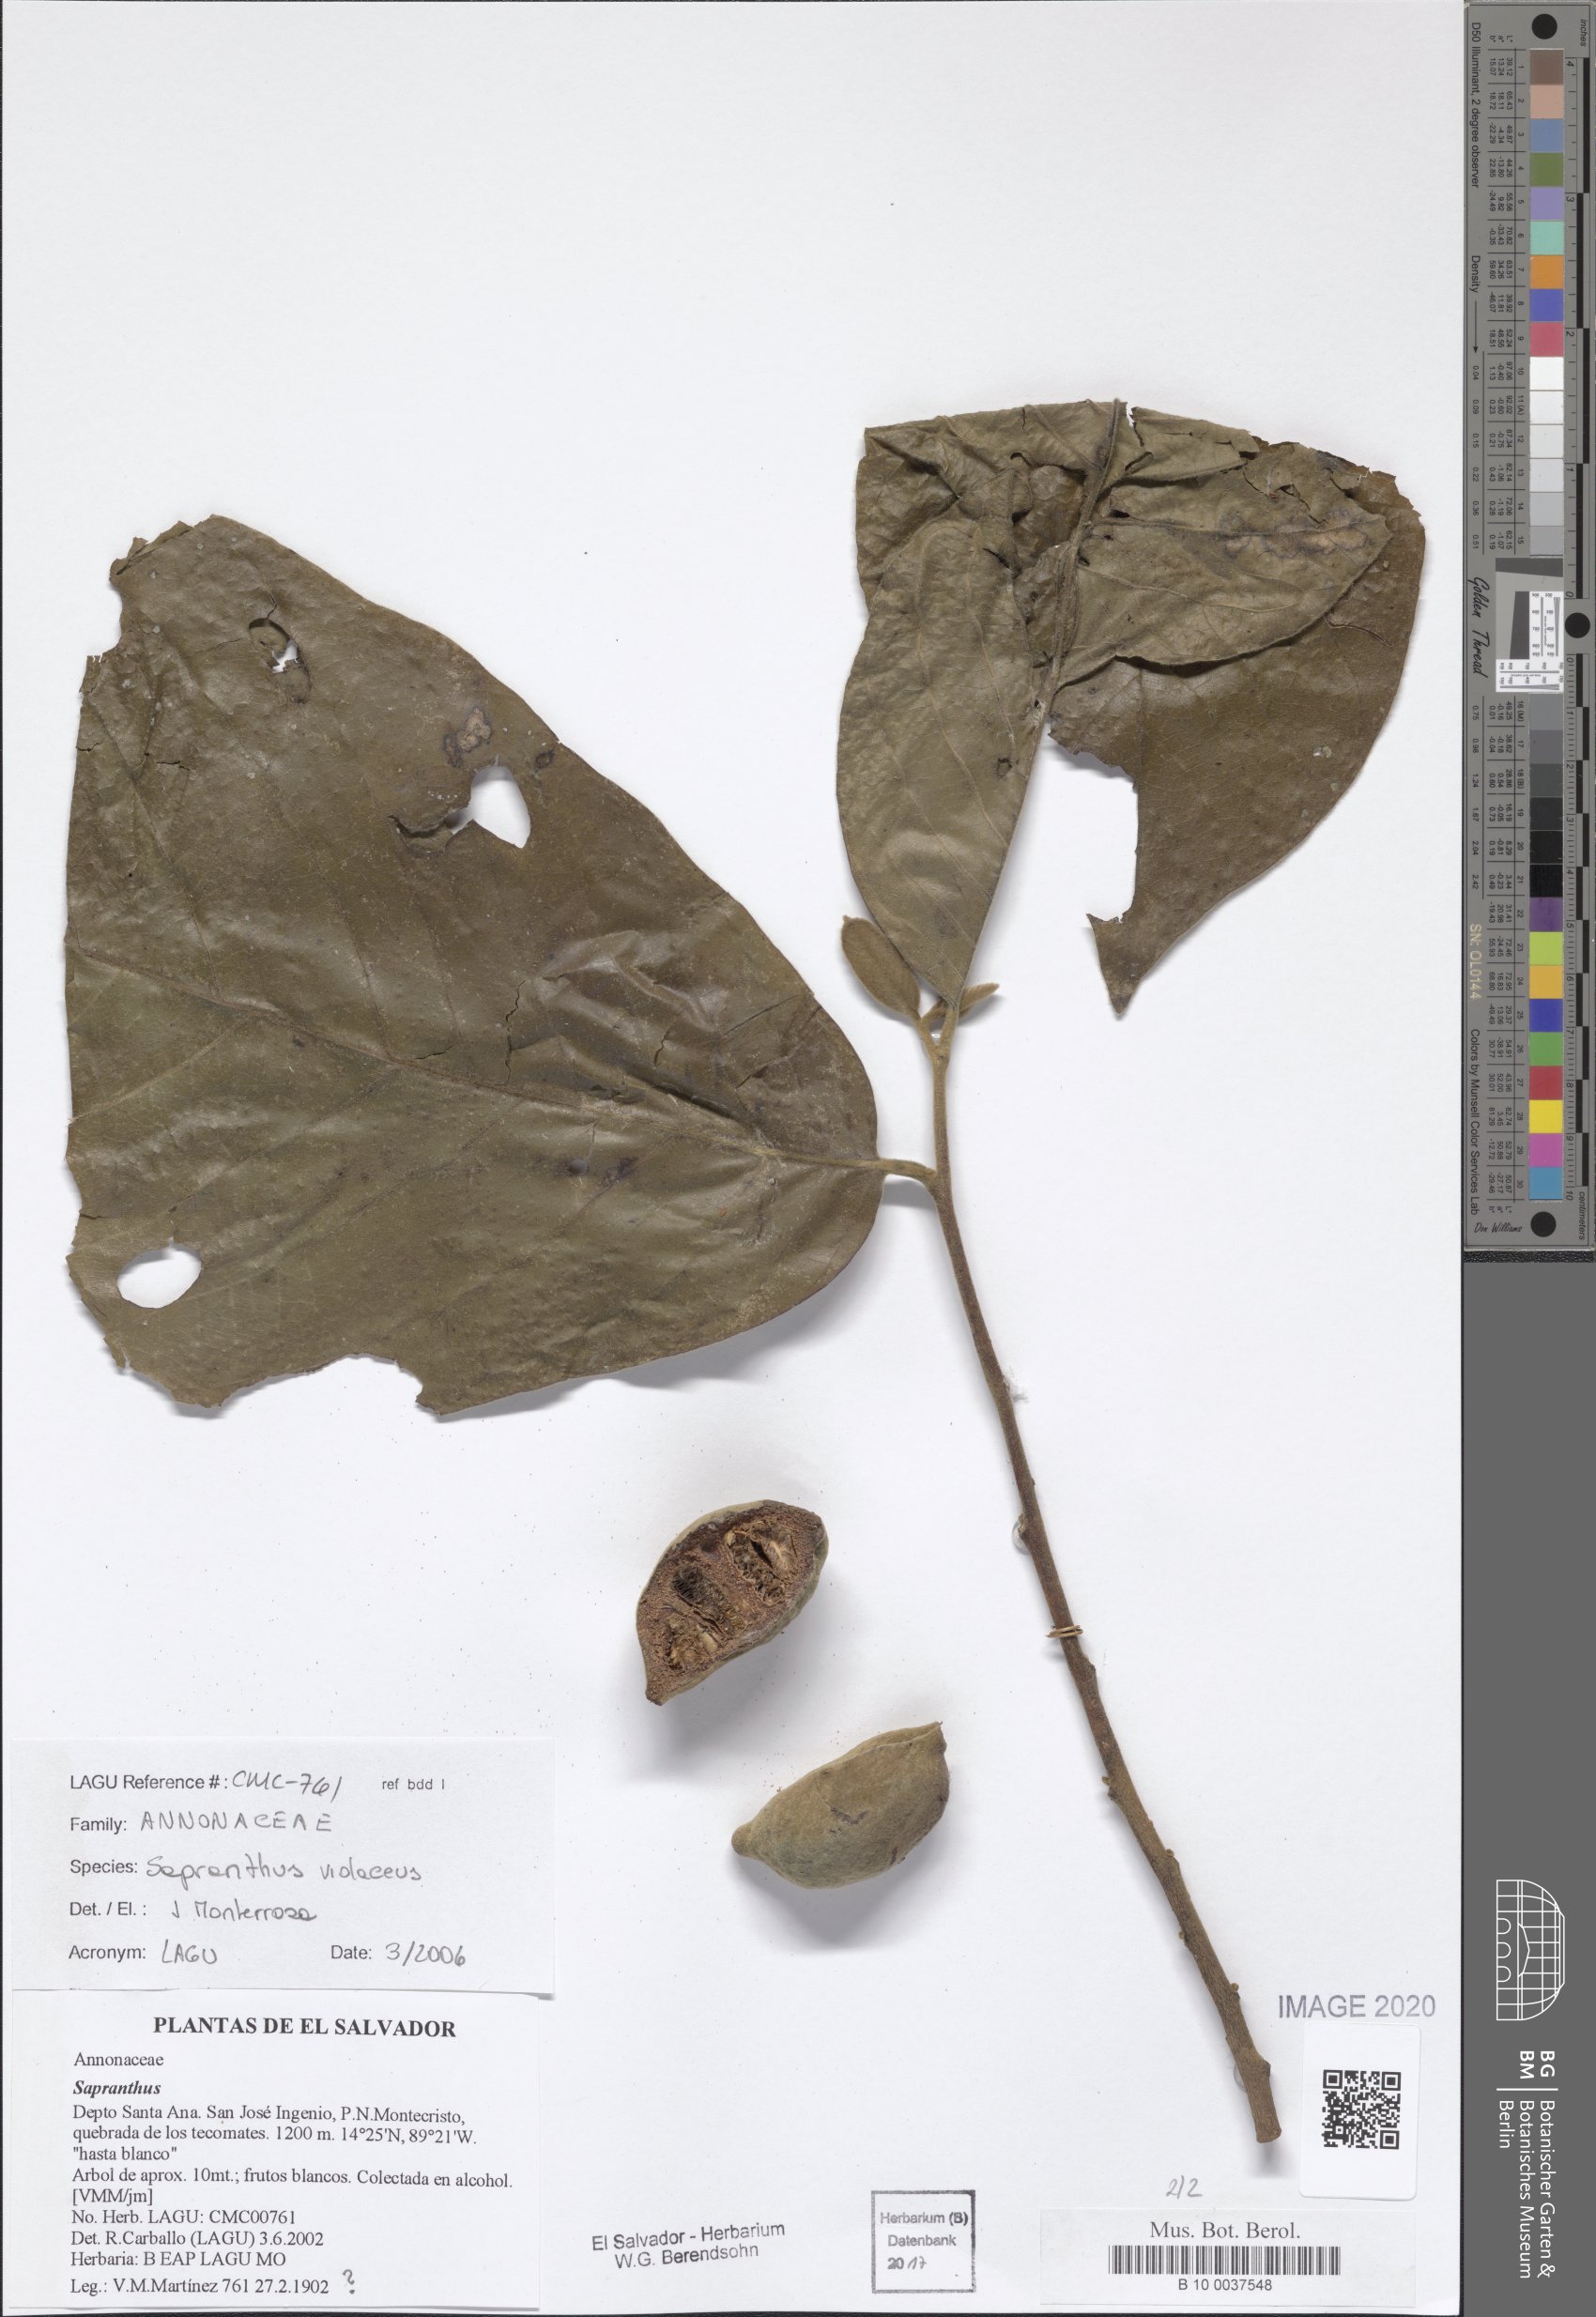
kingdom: Plantae
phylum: Tracheophyta
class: Magnoliopsida
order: Magnoliales
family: Annonaceae
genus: Sapranthus
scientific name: Sapranthus violaceus
